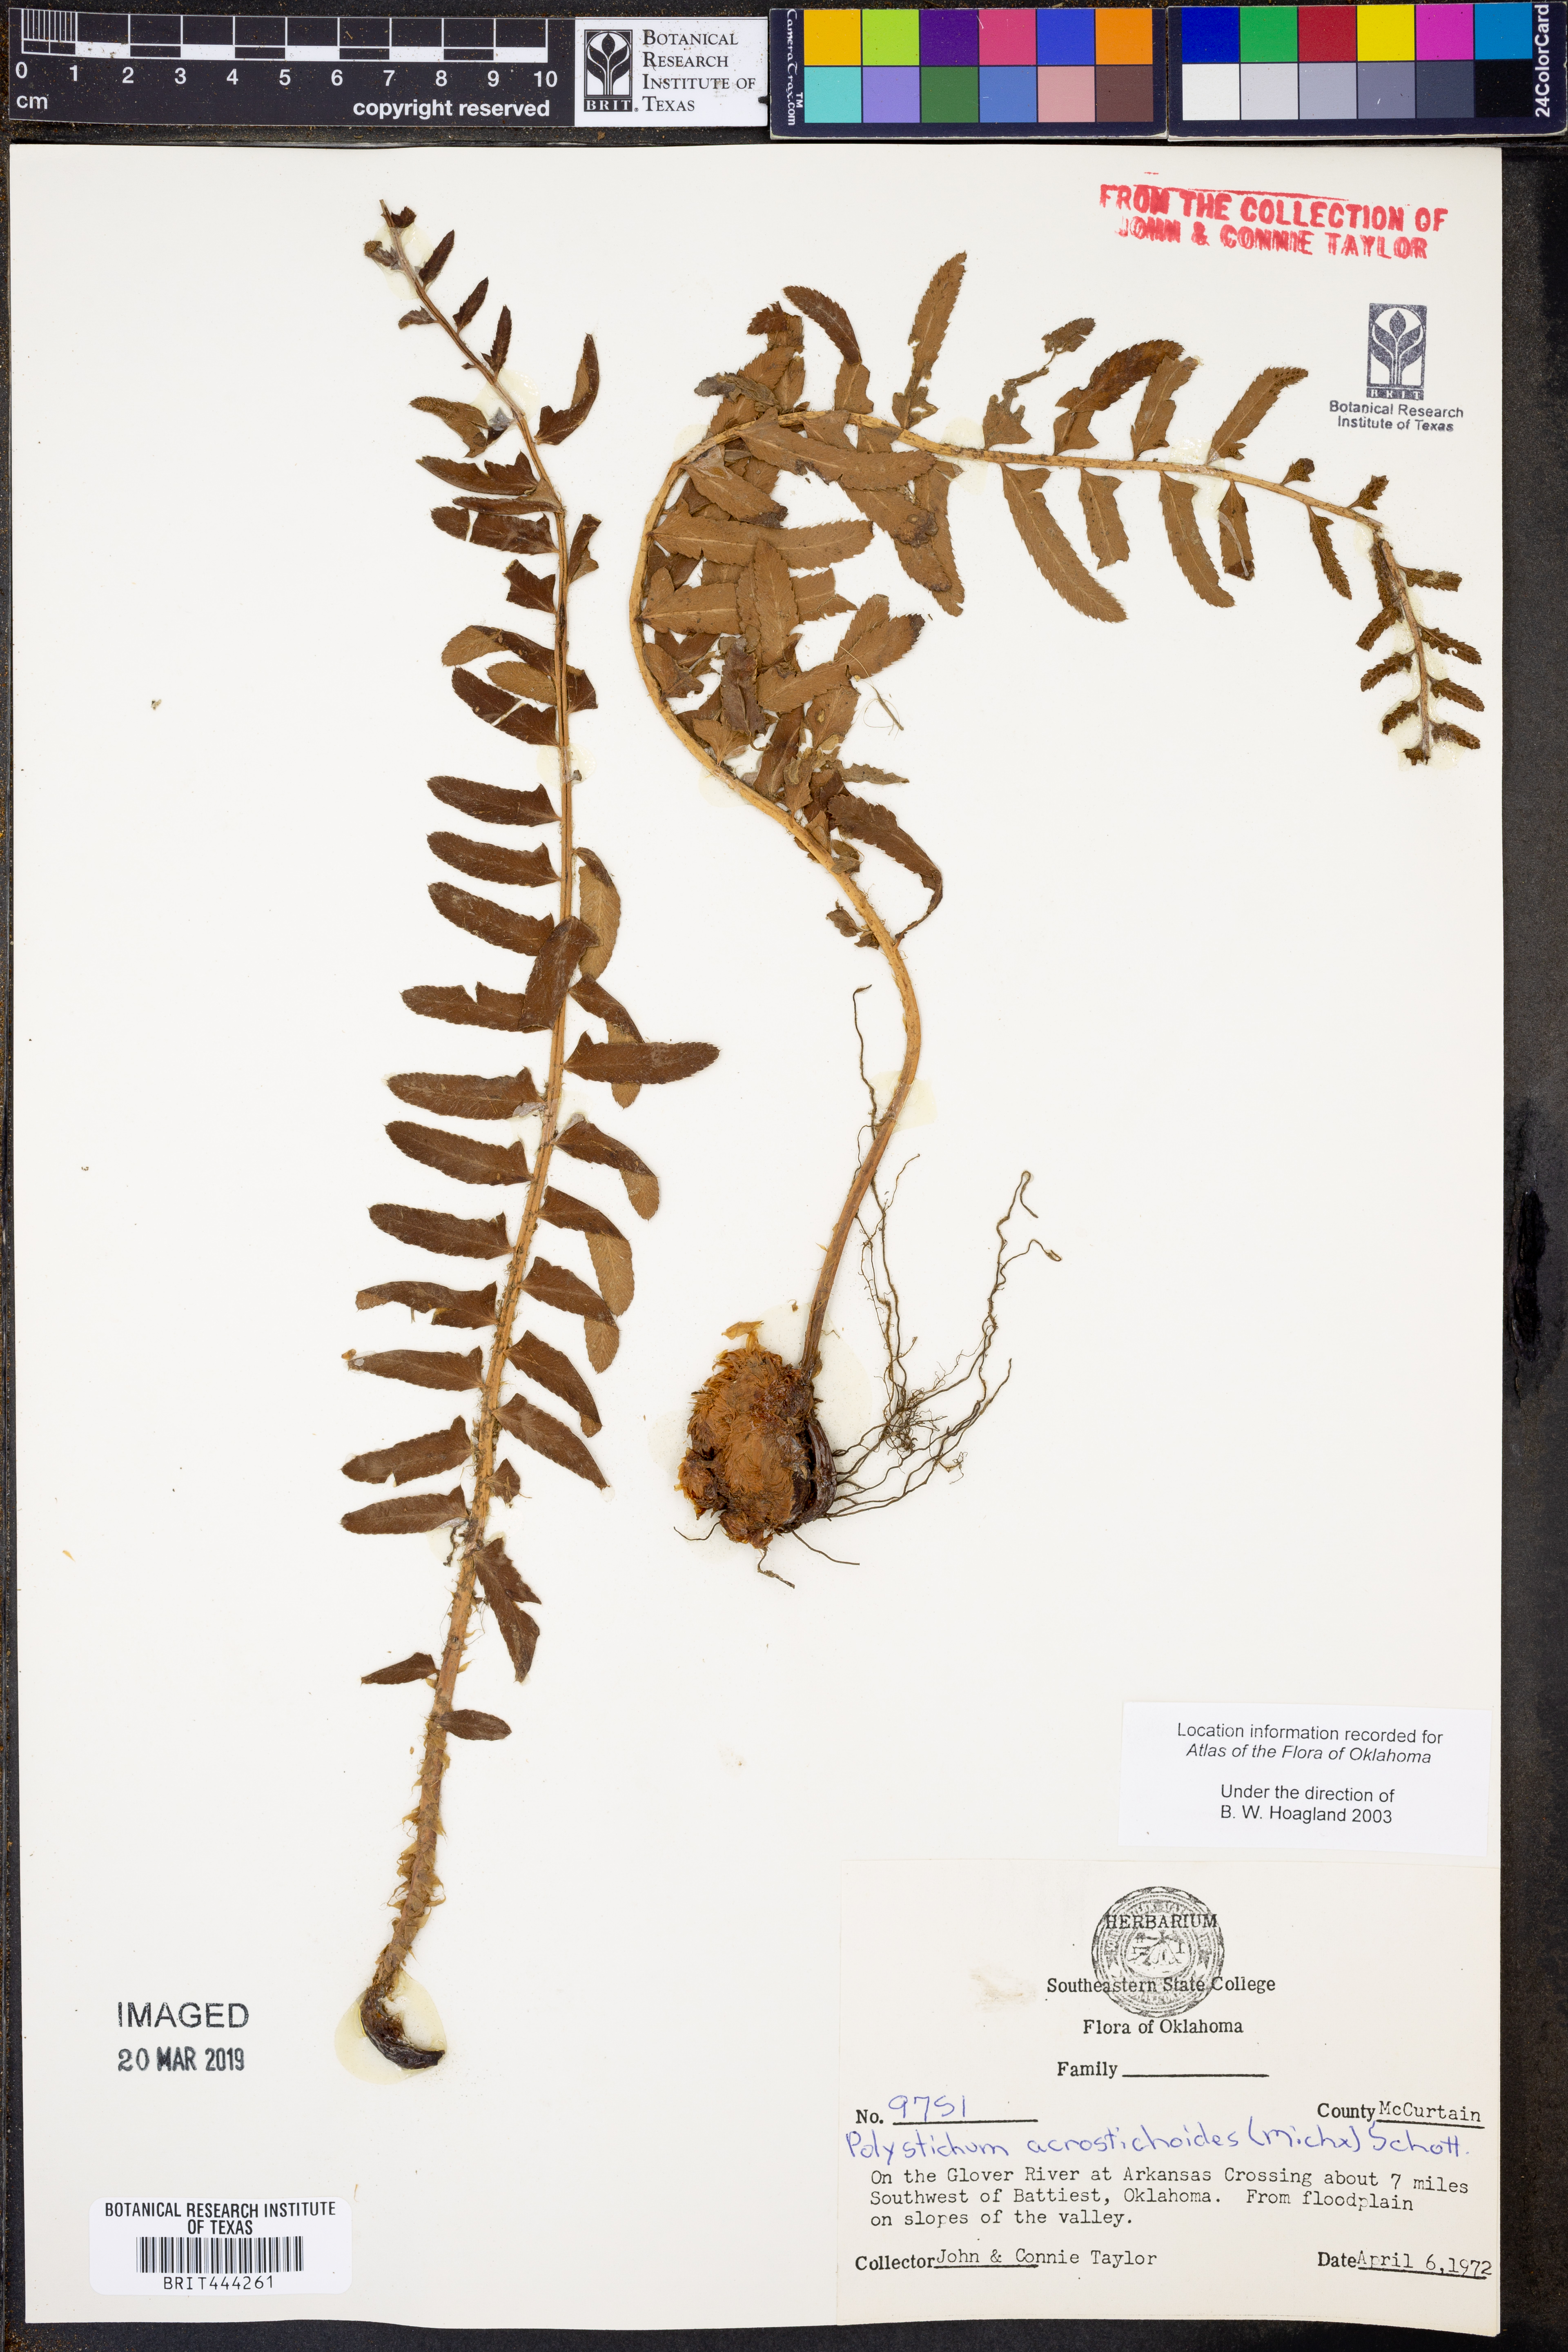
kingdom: Plantae
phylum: Tracheophyta
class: Polypodiopsida
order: Polypodiales
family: Dryopteridaceae
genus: Polystichum
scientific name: Polystichum acrostichoides
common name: Christmas fern
